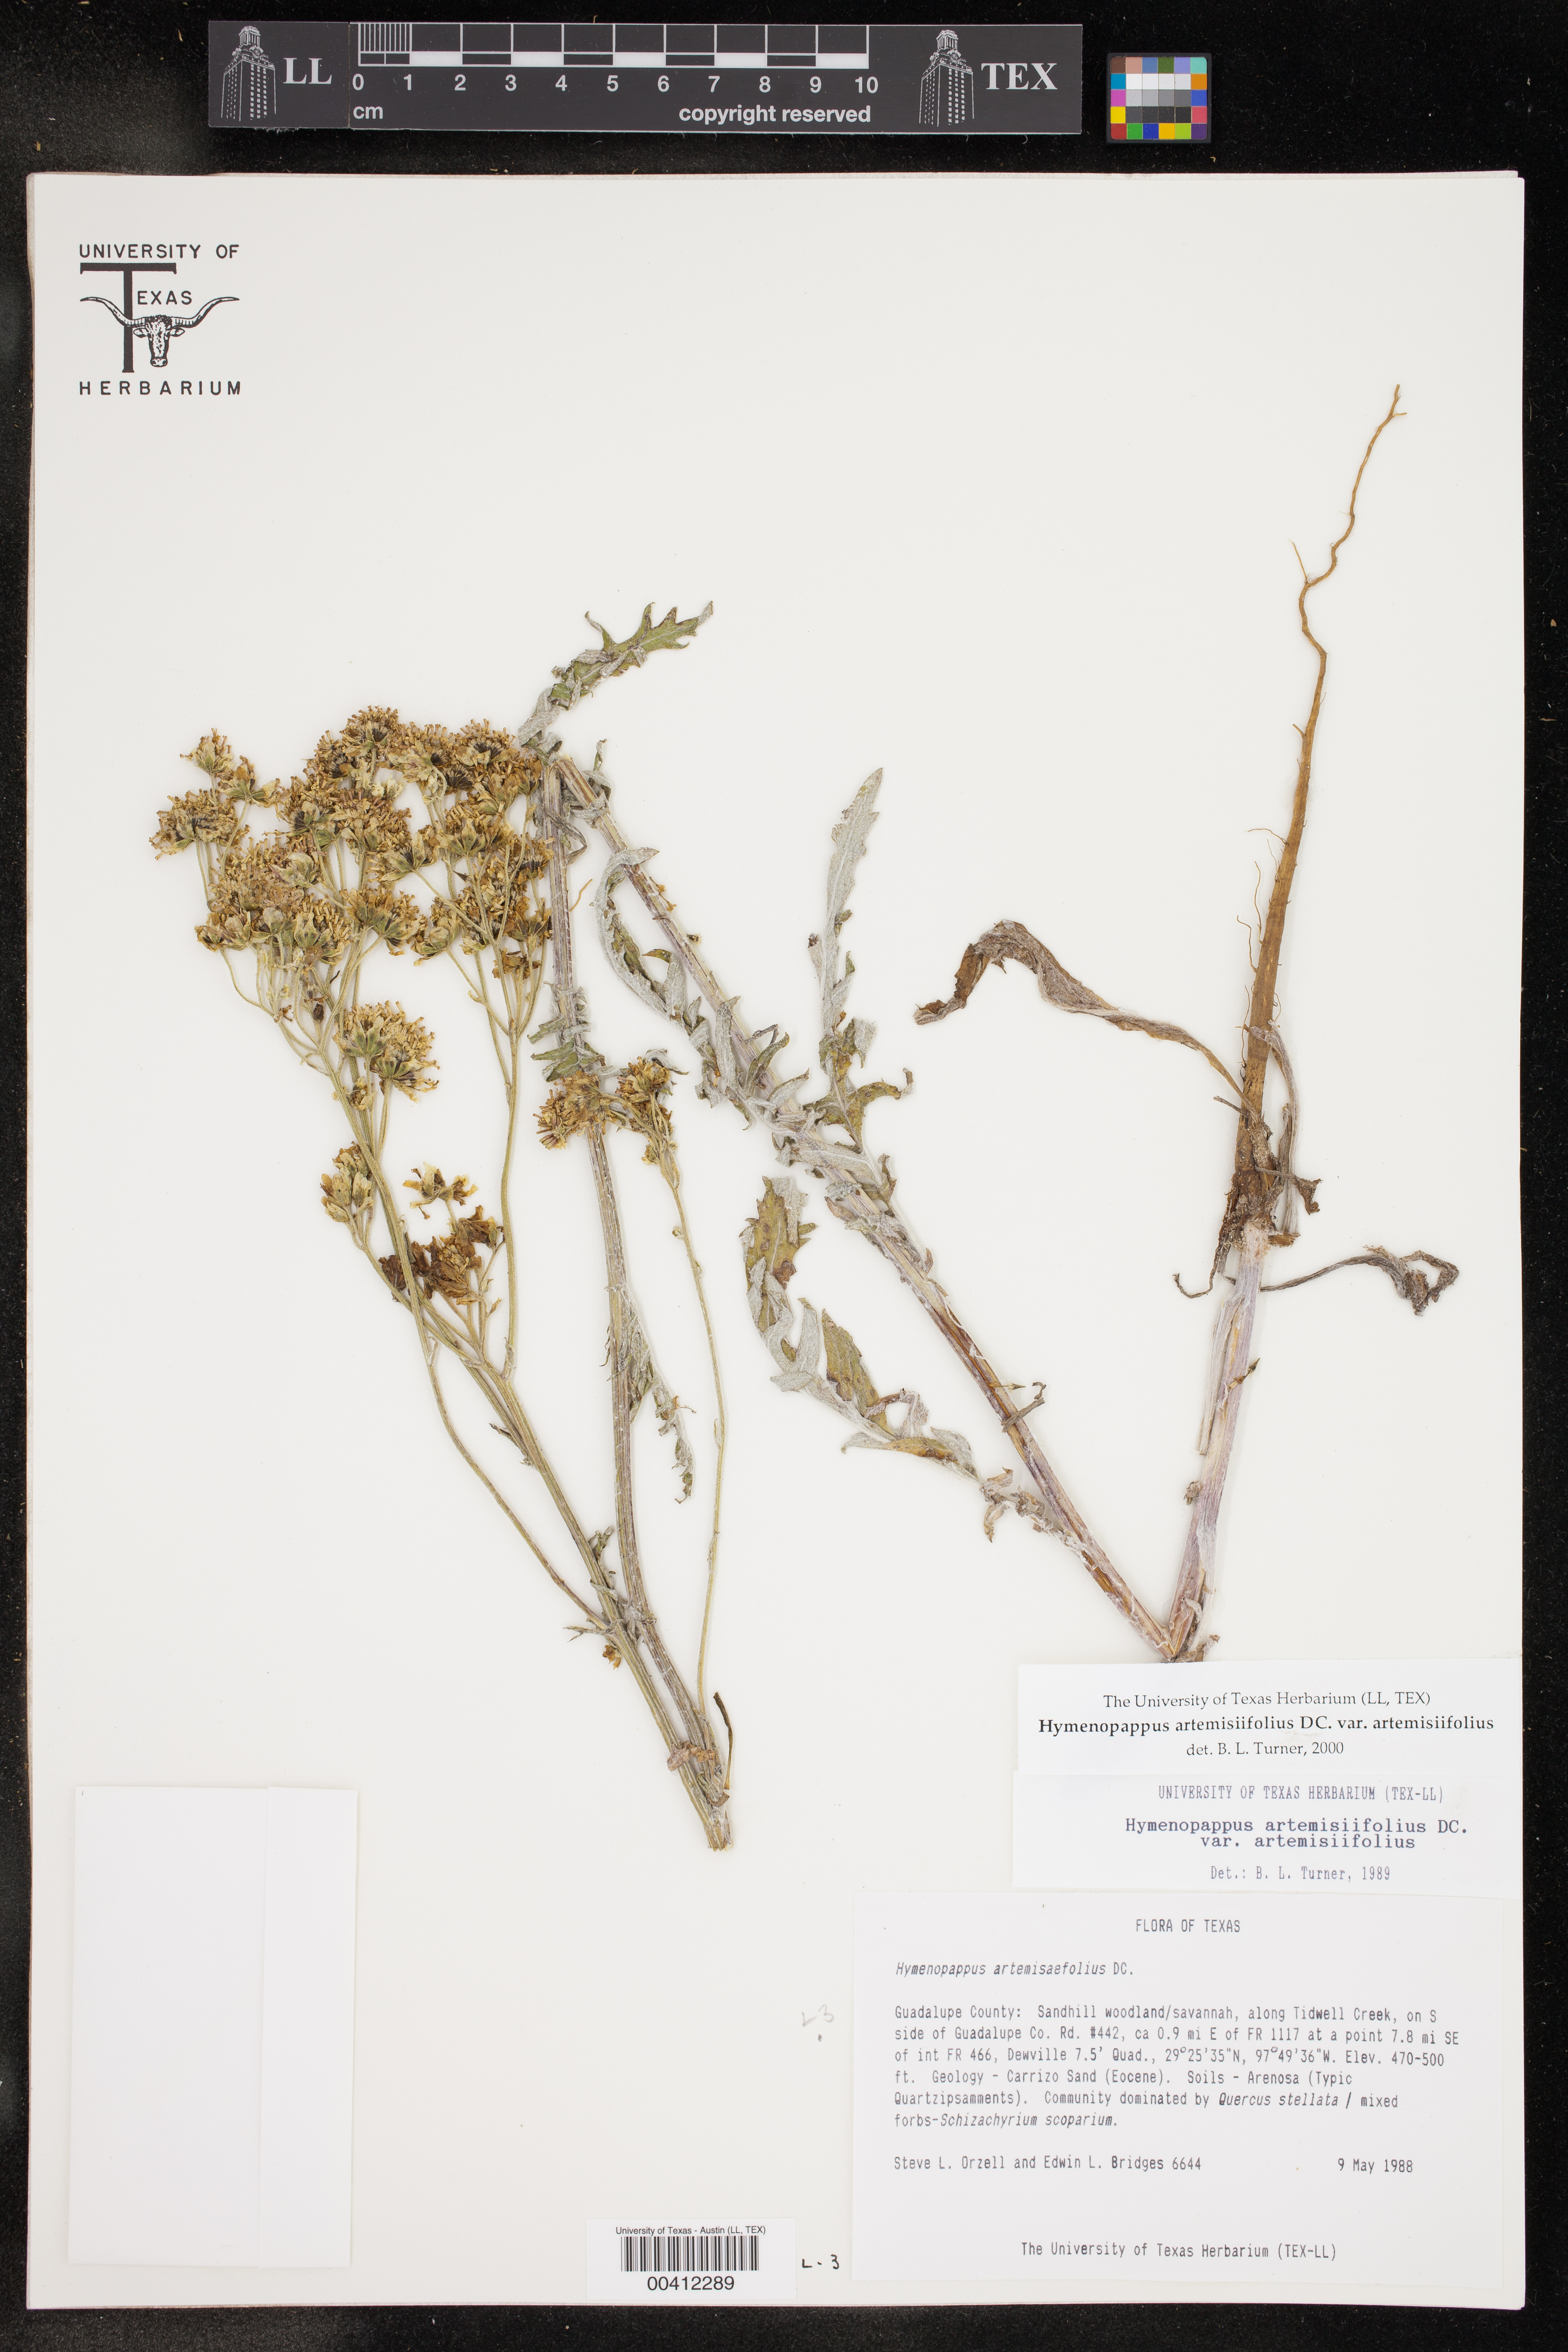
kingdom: Plantae
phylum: Tracheophyta
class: Magnoliopsida
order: Asterales
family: Asteraceae
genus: Hymenopappus
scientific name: Hymenopappus artemisiifolius
